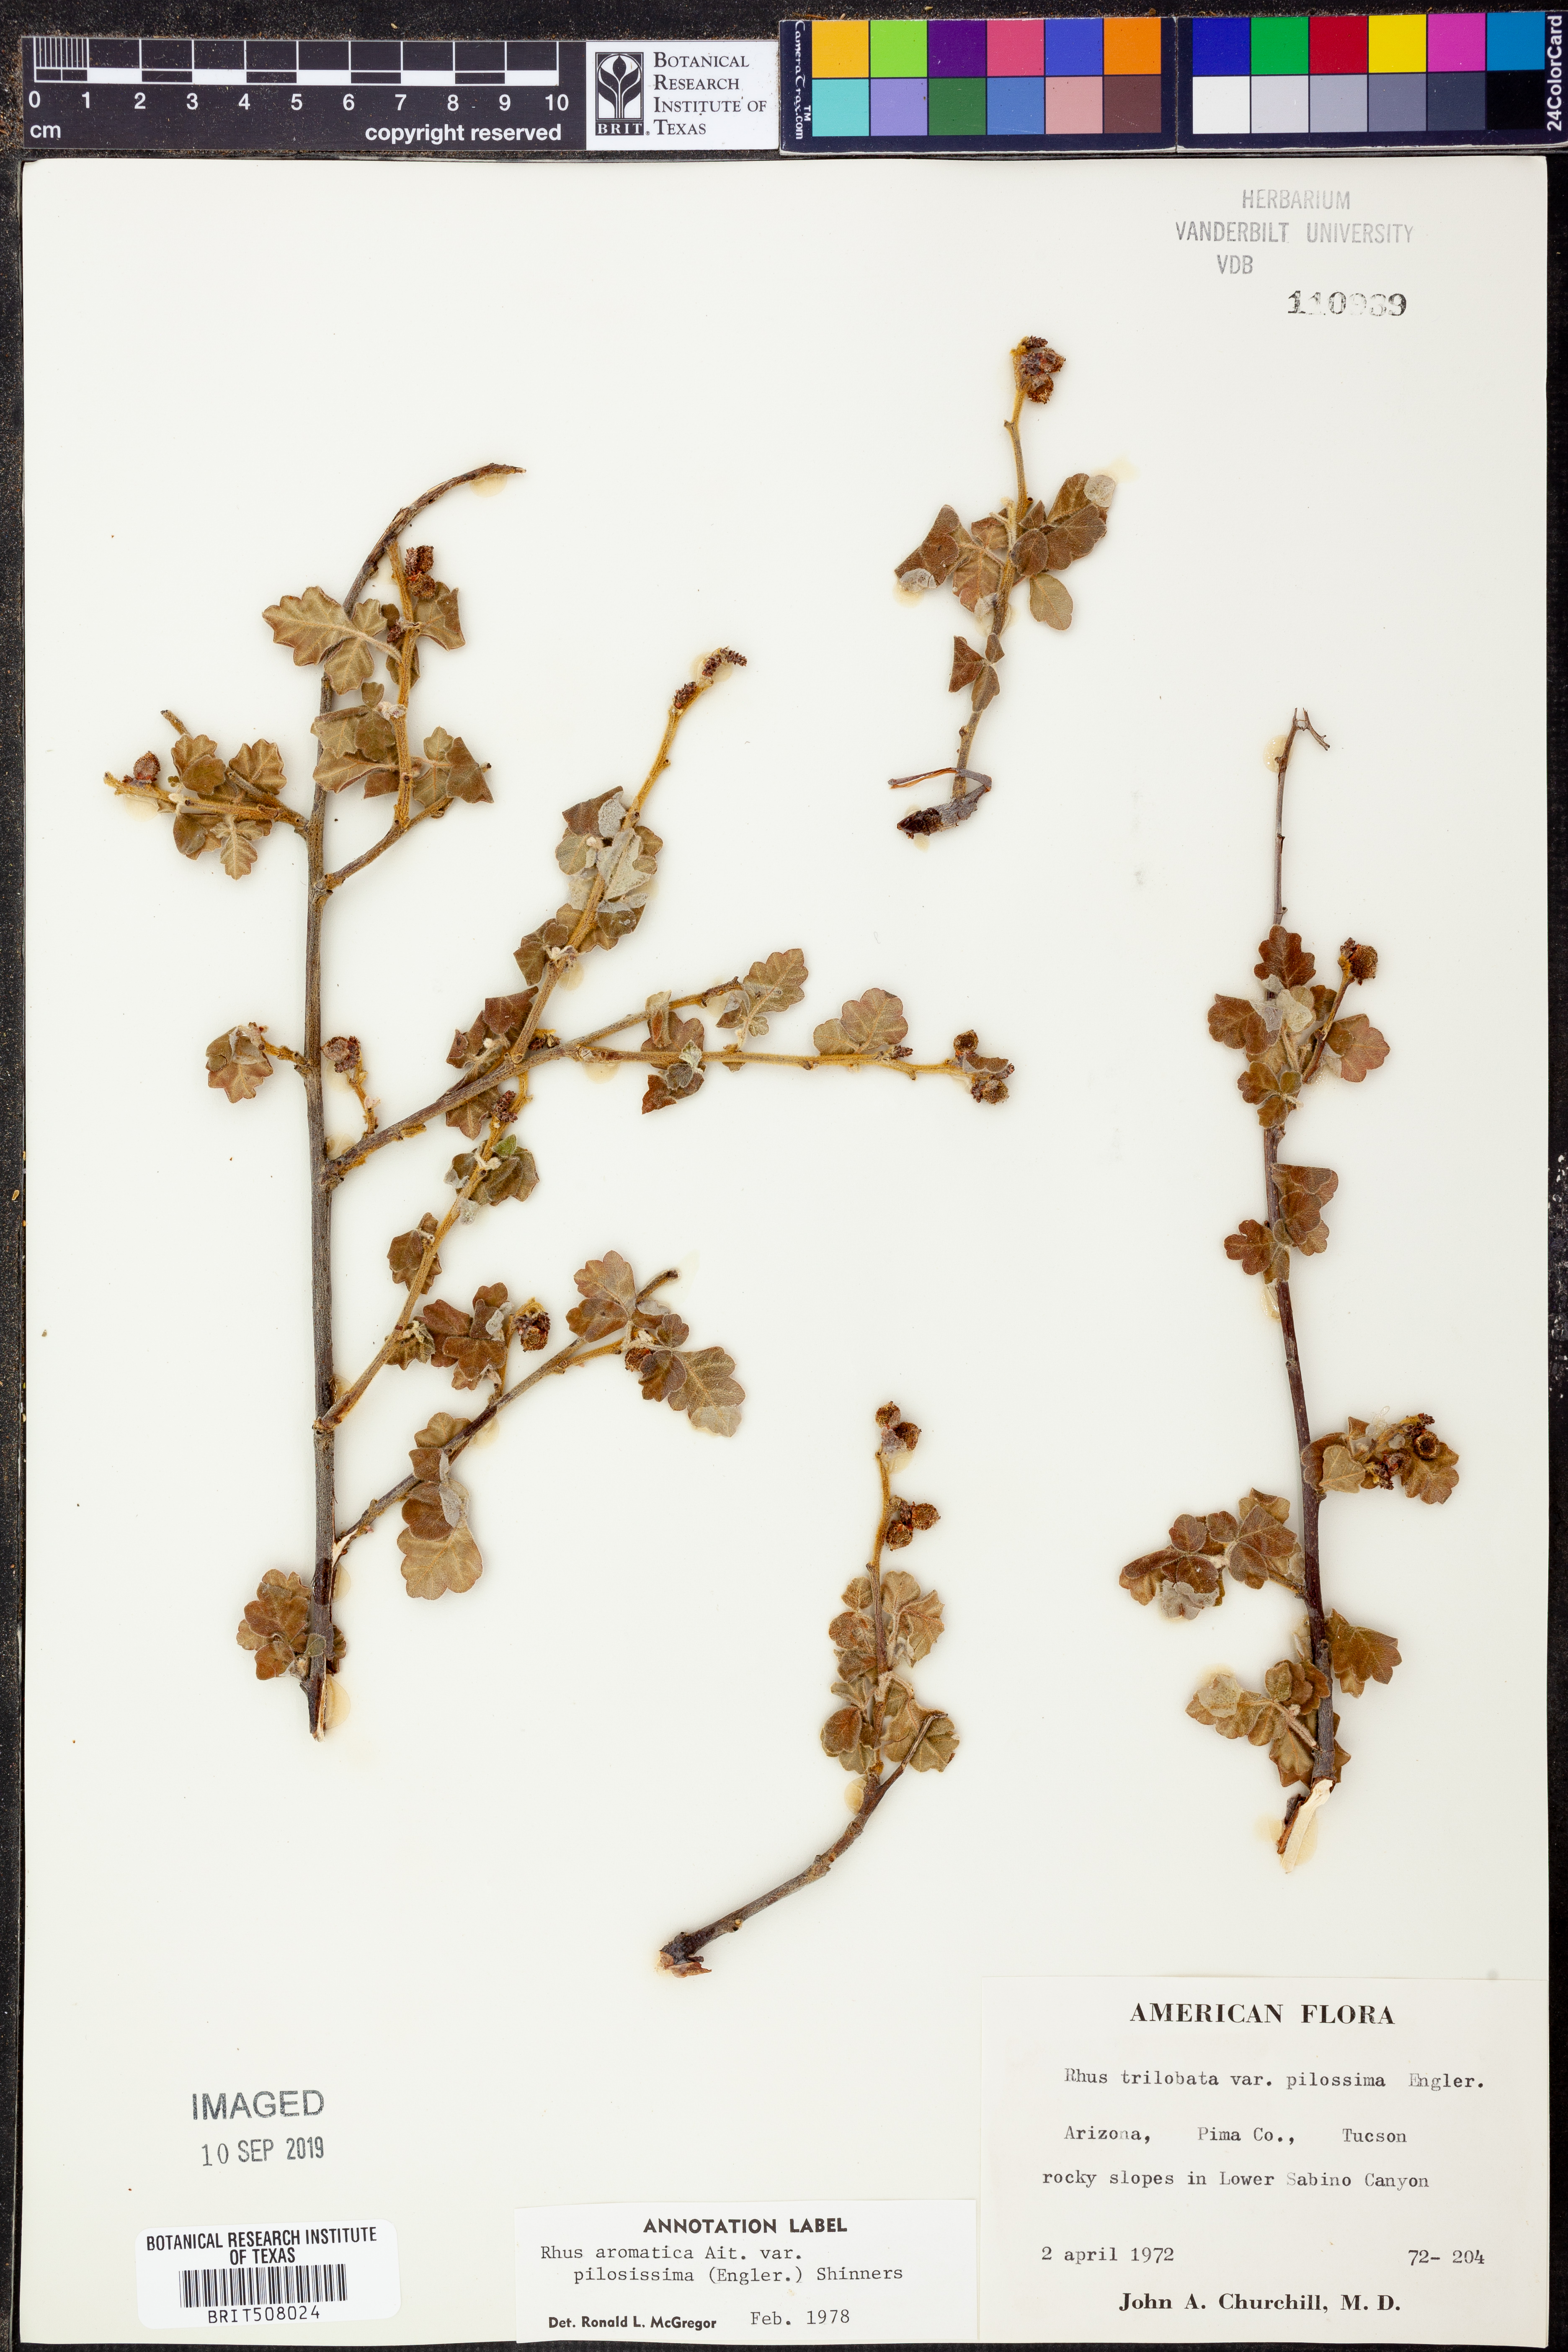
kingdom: Plantae
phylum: Tracheophyta
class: Magnoliopsida
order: Sapindales
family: Anacardiaceae
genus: Rhus
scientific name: Rhus trilobata
